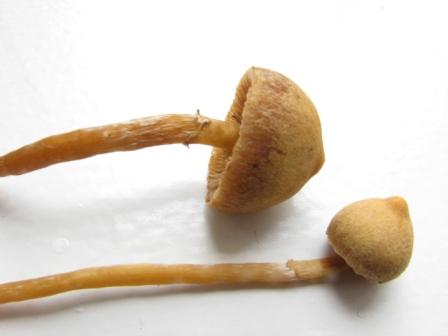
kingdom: Fungi
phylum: Basidiomycota
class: Agaricomycetes
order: Agaricales
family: Hymenogastraceae
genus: Galerina
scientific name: Galerina paludosa
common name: mose-hjelmhat
